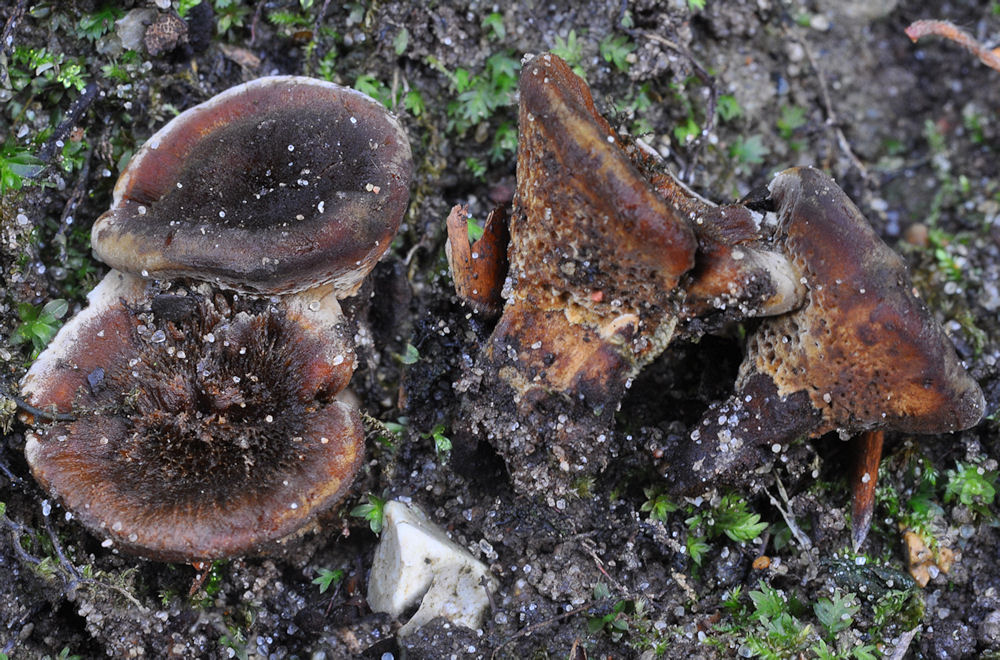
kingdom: Fungi
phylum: Basidiomycota
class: Agaricomycetes
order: Hymenochaetales
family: Hymenochaetaceae
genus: Coltricia
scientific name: Coltricia confluens
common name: park-sandporesvamp
